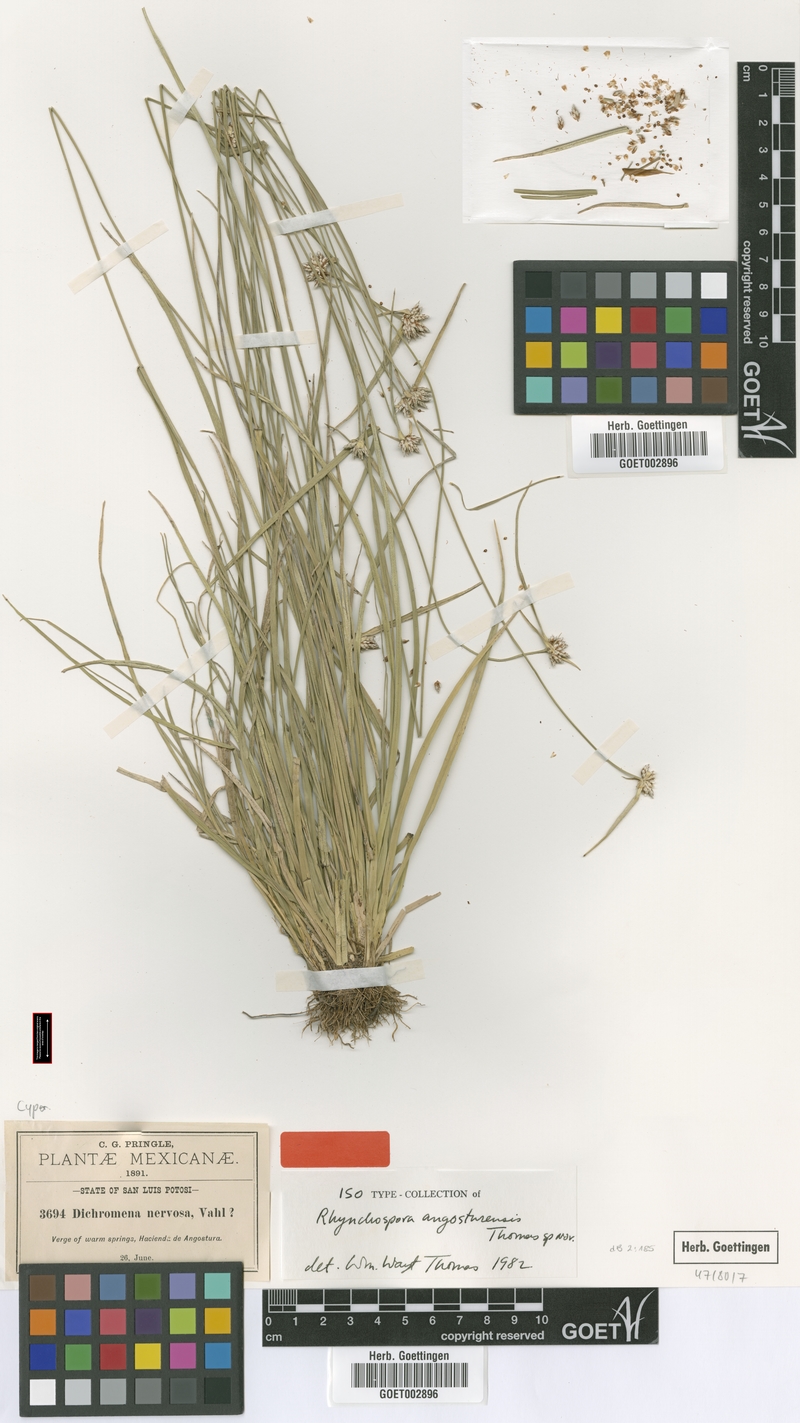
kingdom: Plantae
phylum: Tracheophyta
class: Liliopsida
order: Poales
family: Cyperaceae
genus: Rhynchospora
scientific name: Rhynchospora angosturensis
